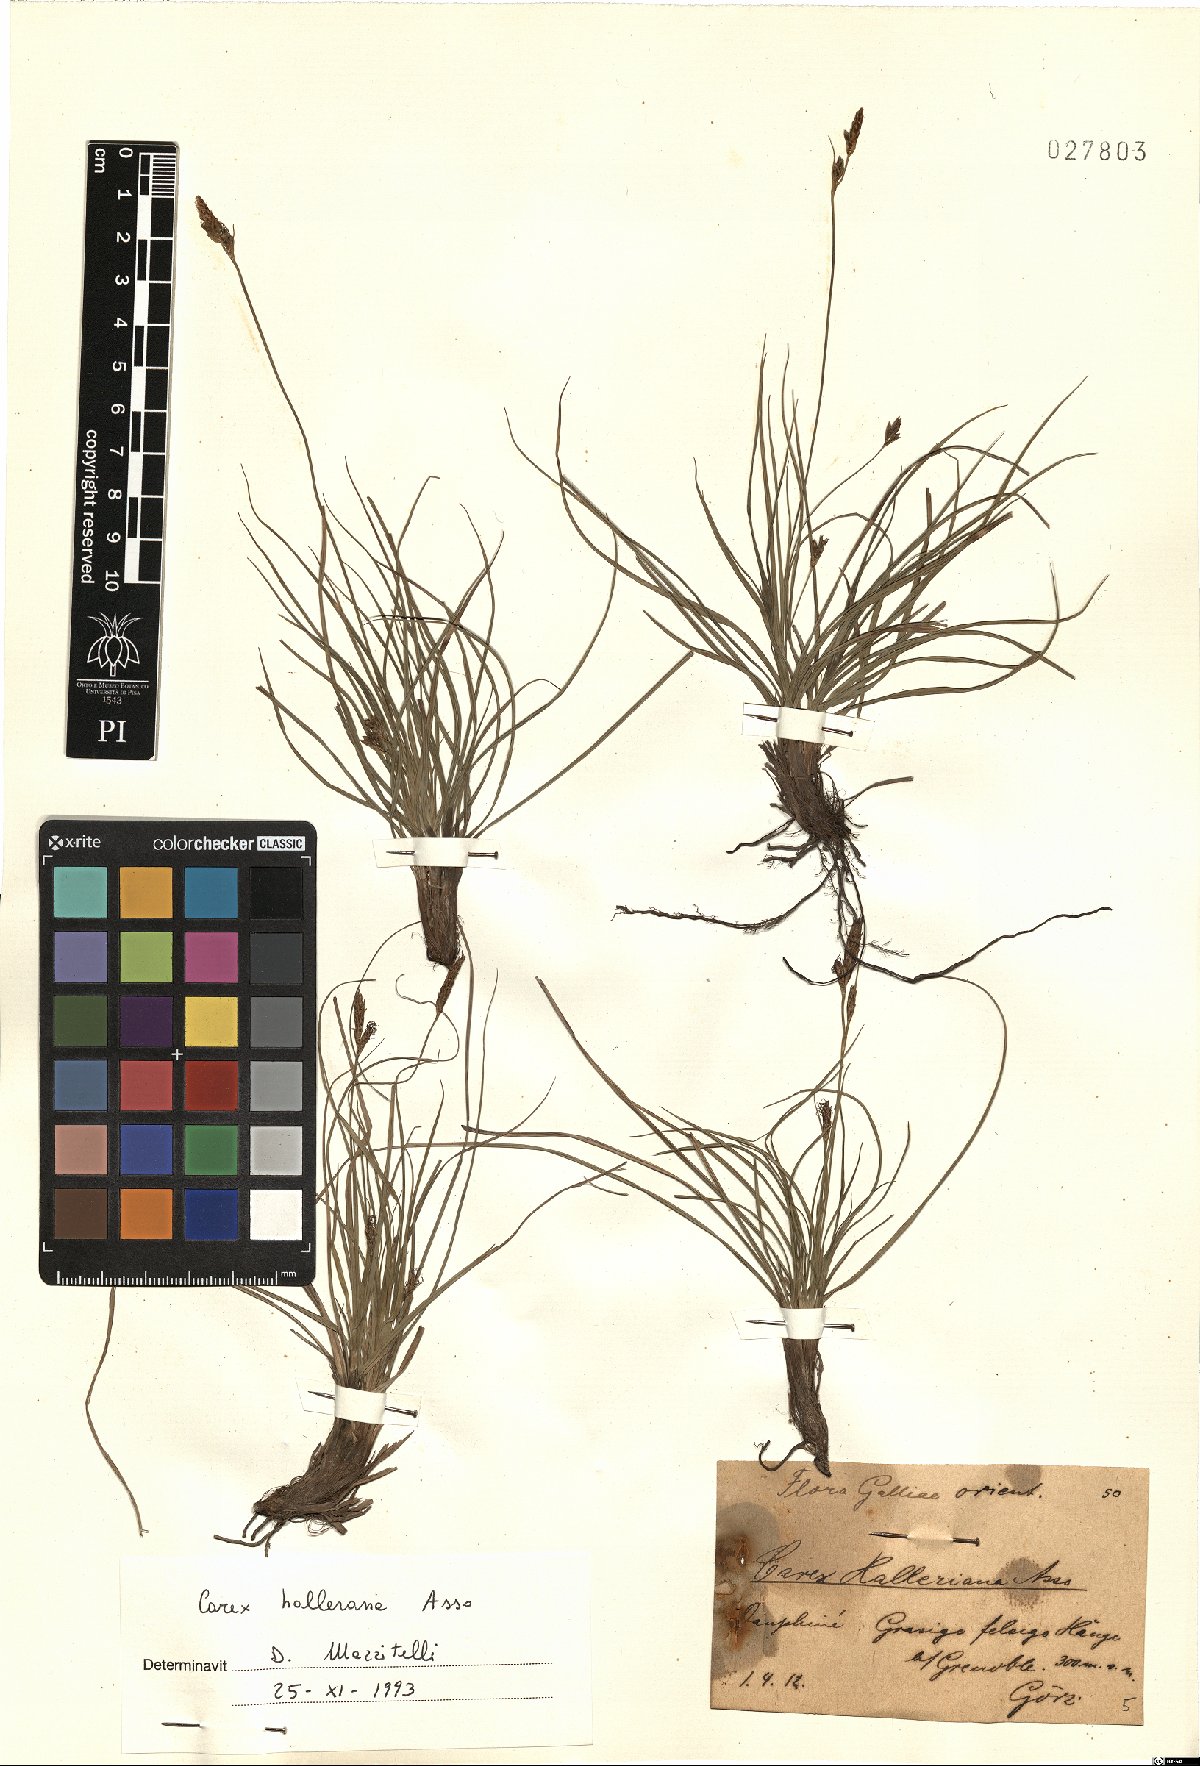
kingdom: Plantae
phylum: Tracheophyta
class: Liliopsida
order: Poales
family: Cyperaceae
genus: Carex
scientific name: Carex halleriana
